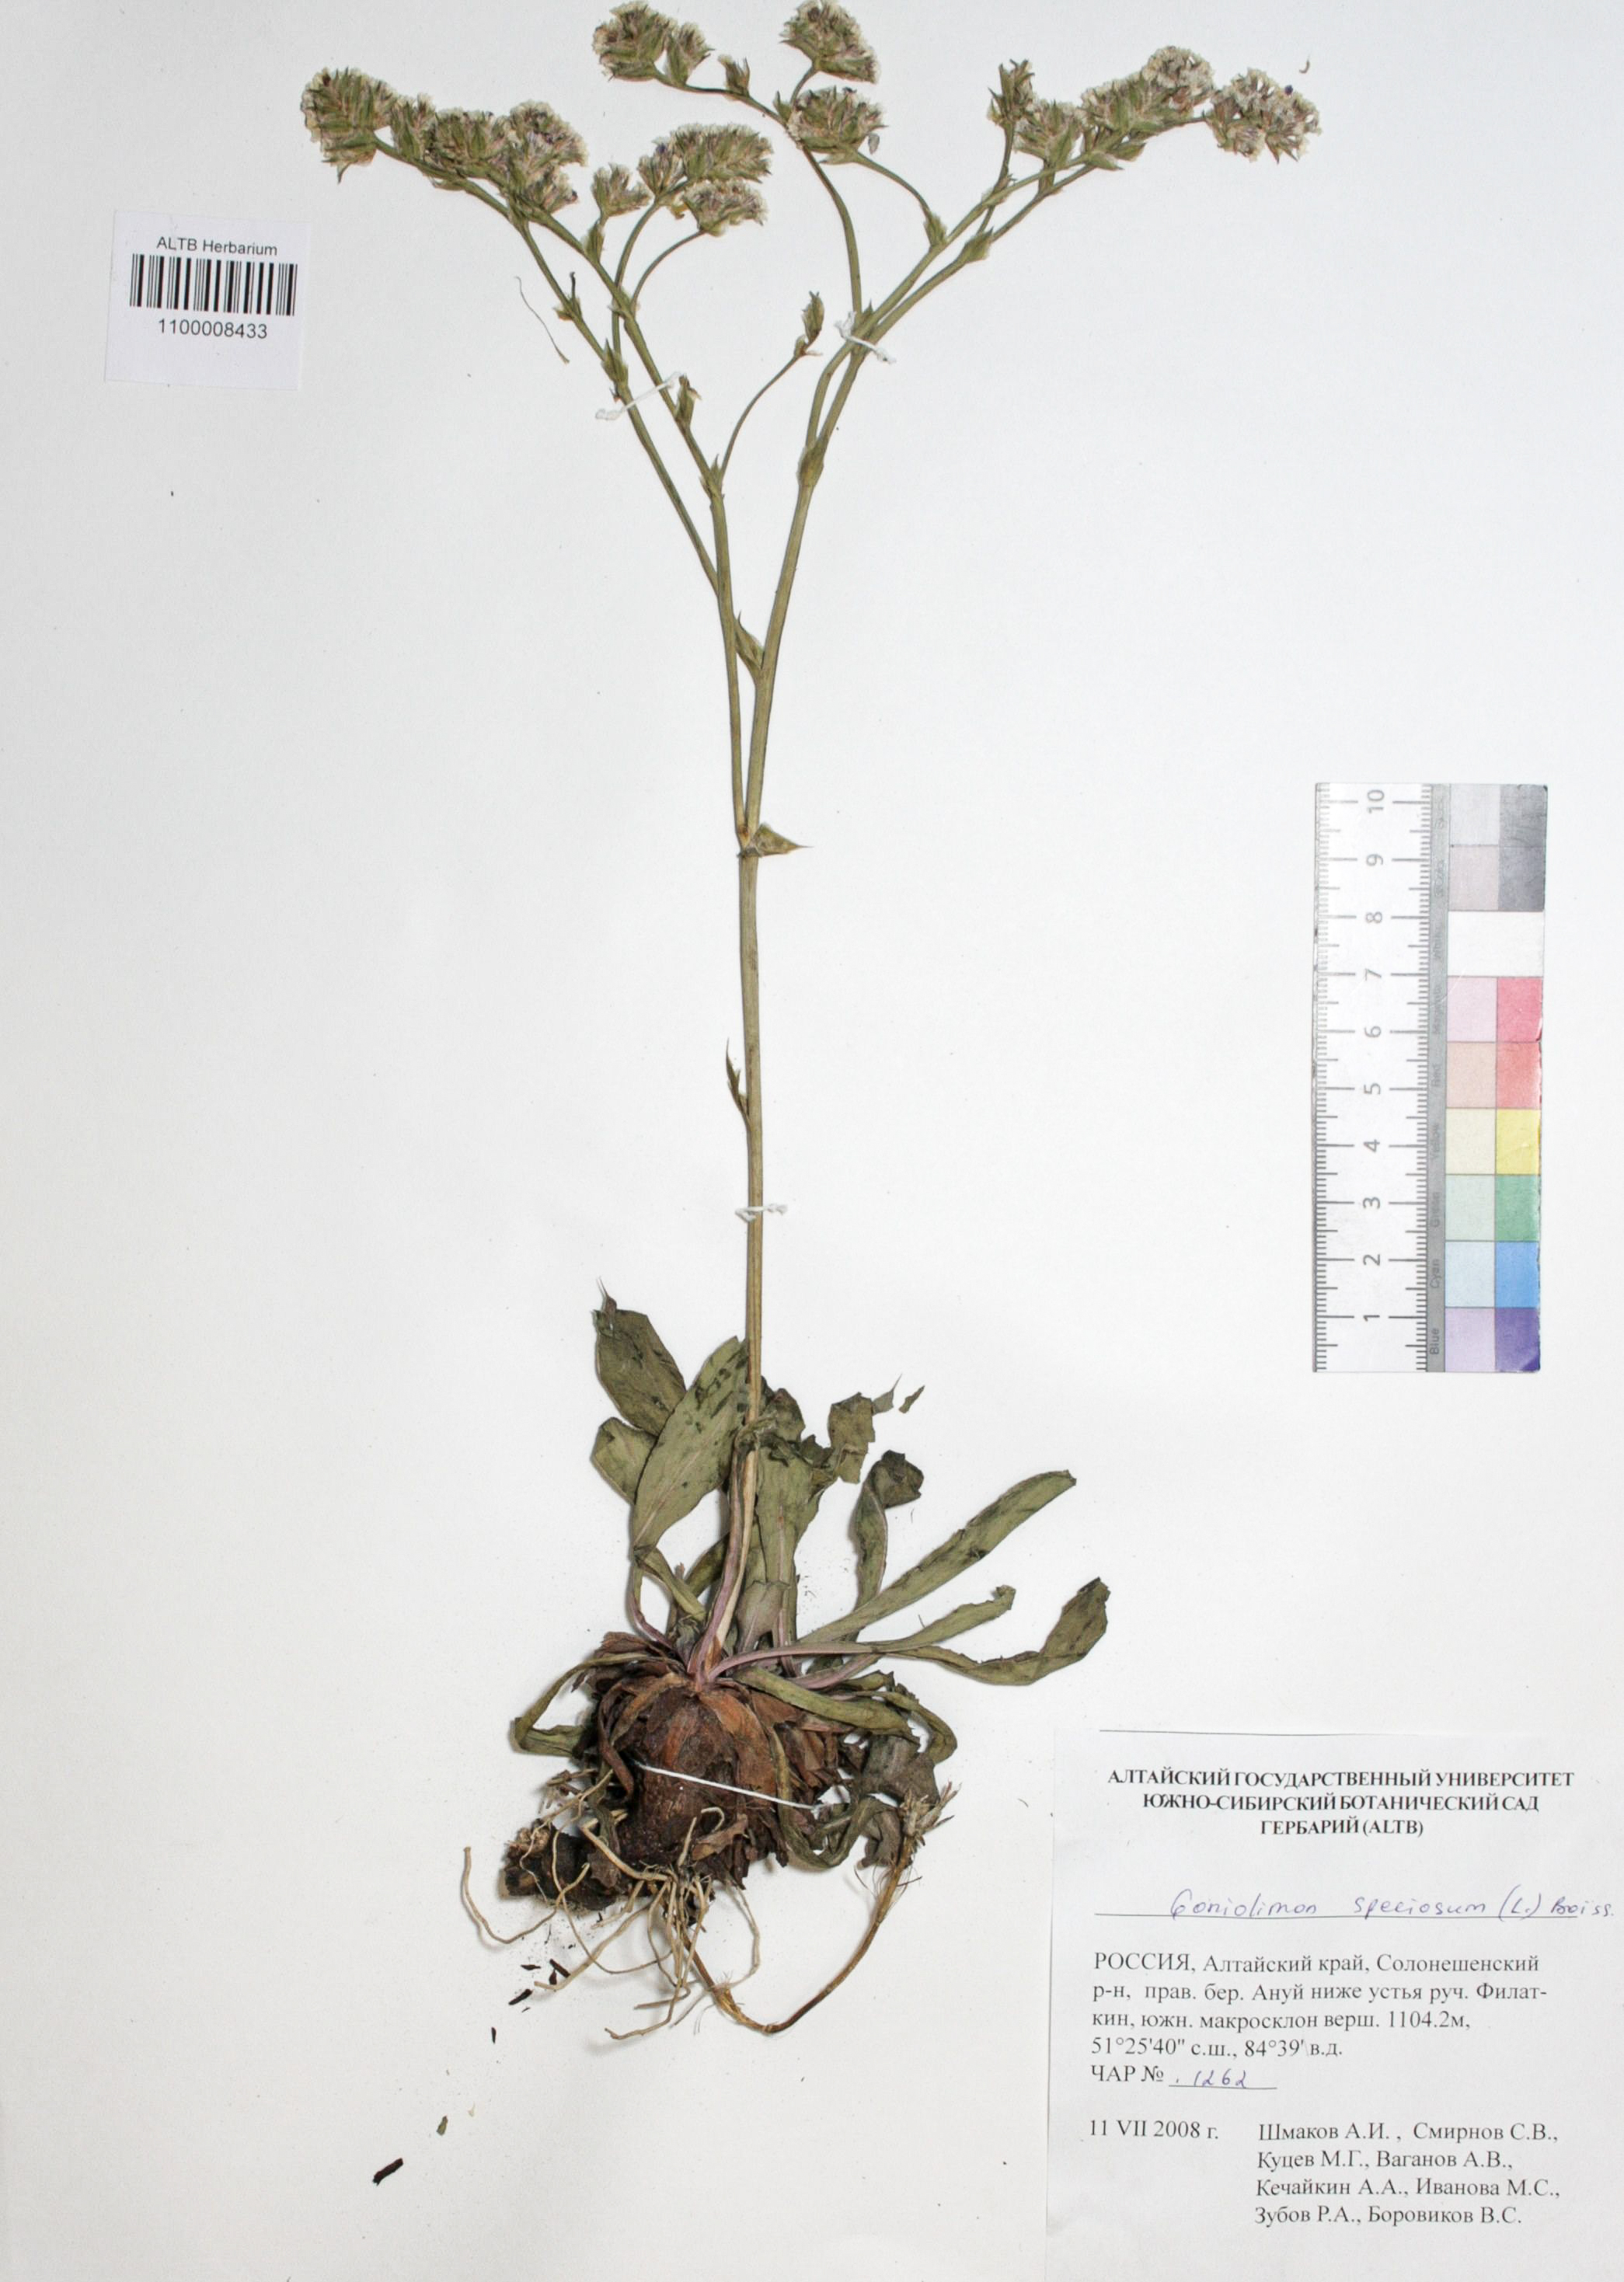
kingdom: Plantae
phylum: Tracheophyta
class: Magnoliopsida
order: Caryophyllales
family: Plumbaginaceae
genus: Goniolimon
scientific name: Goniolimon speciosum
